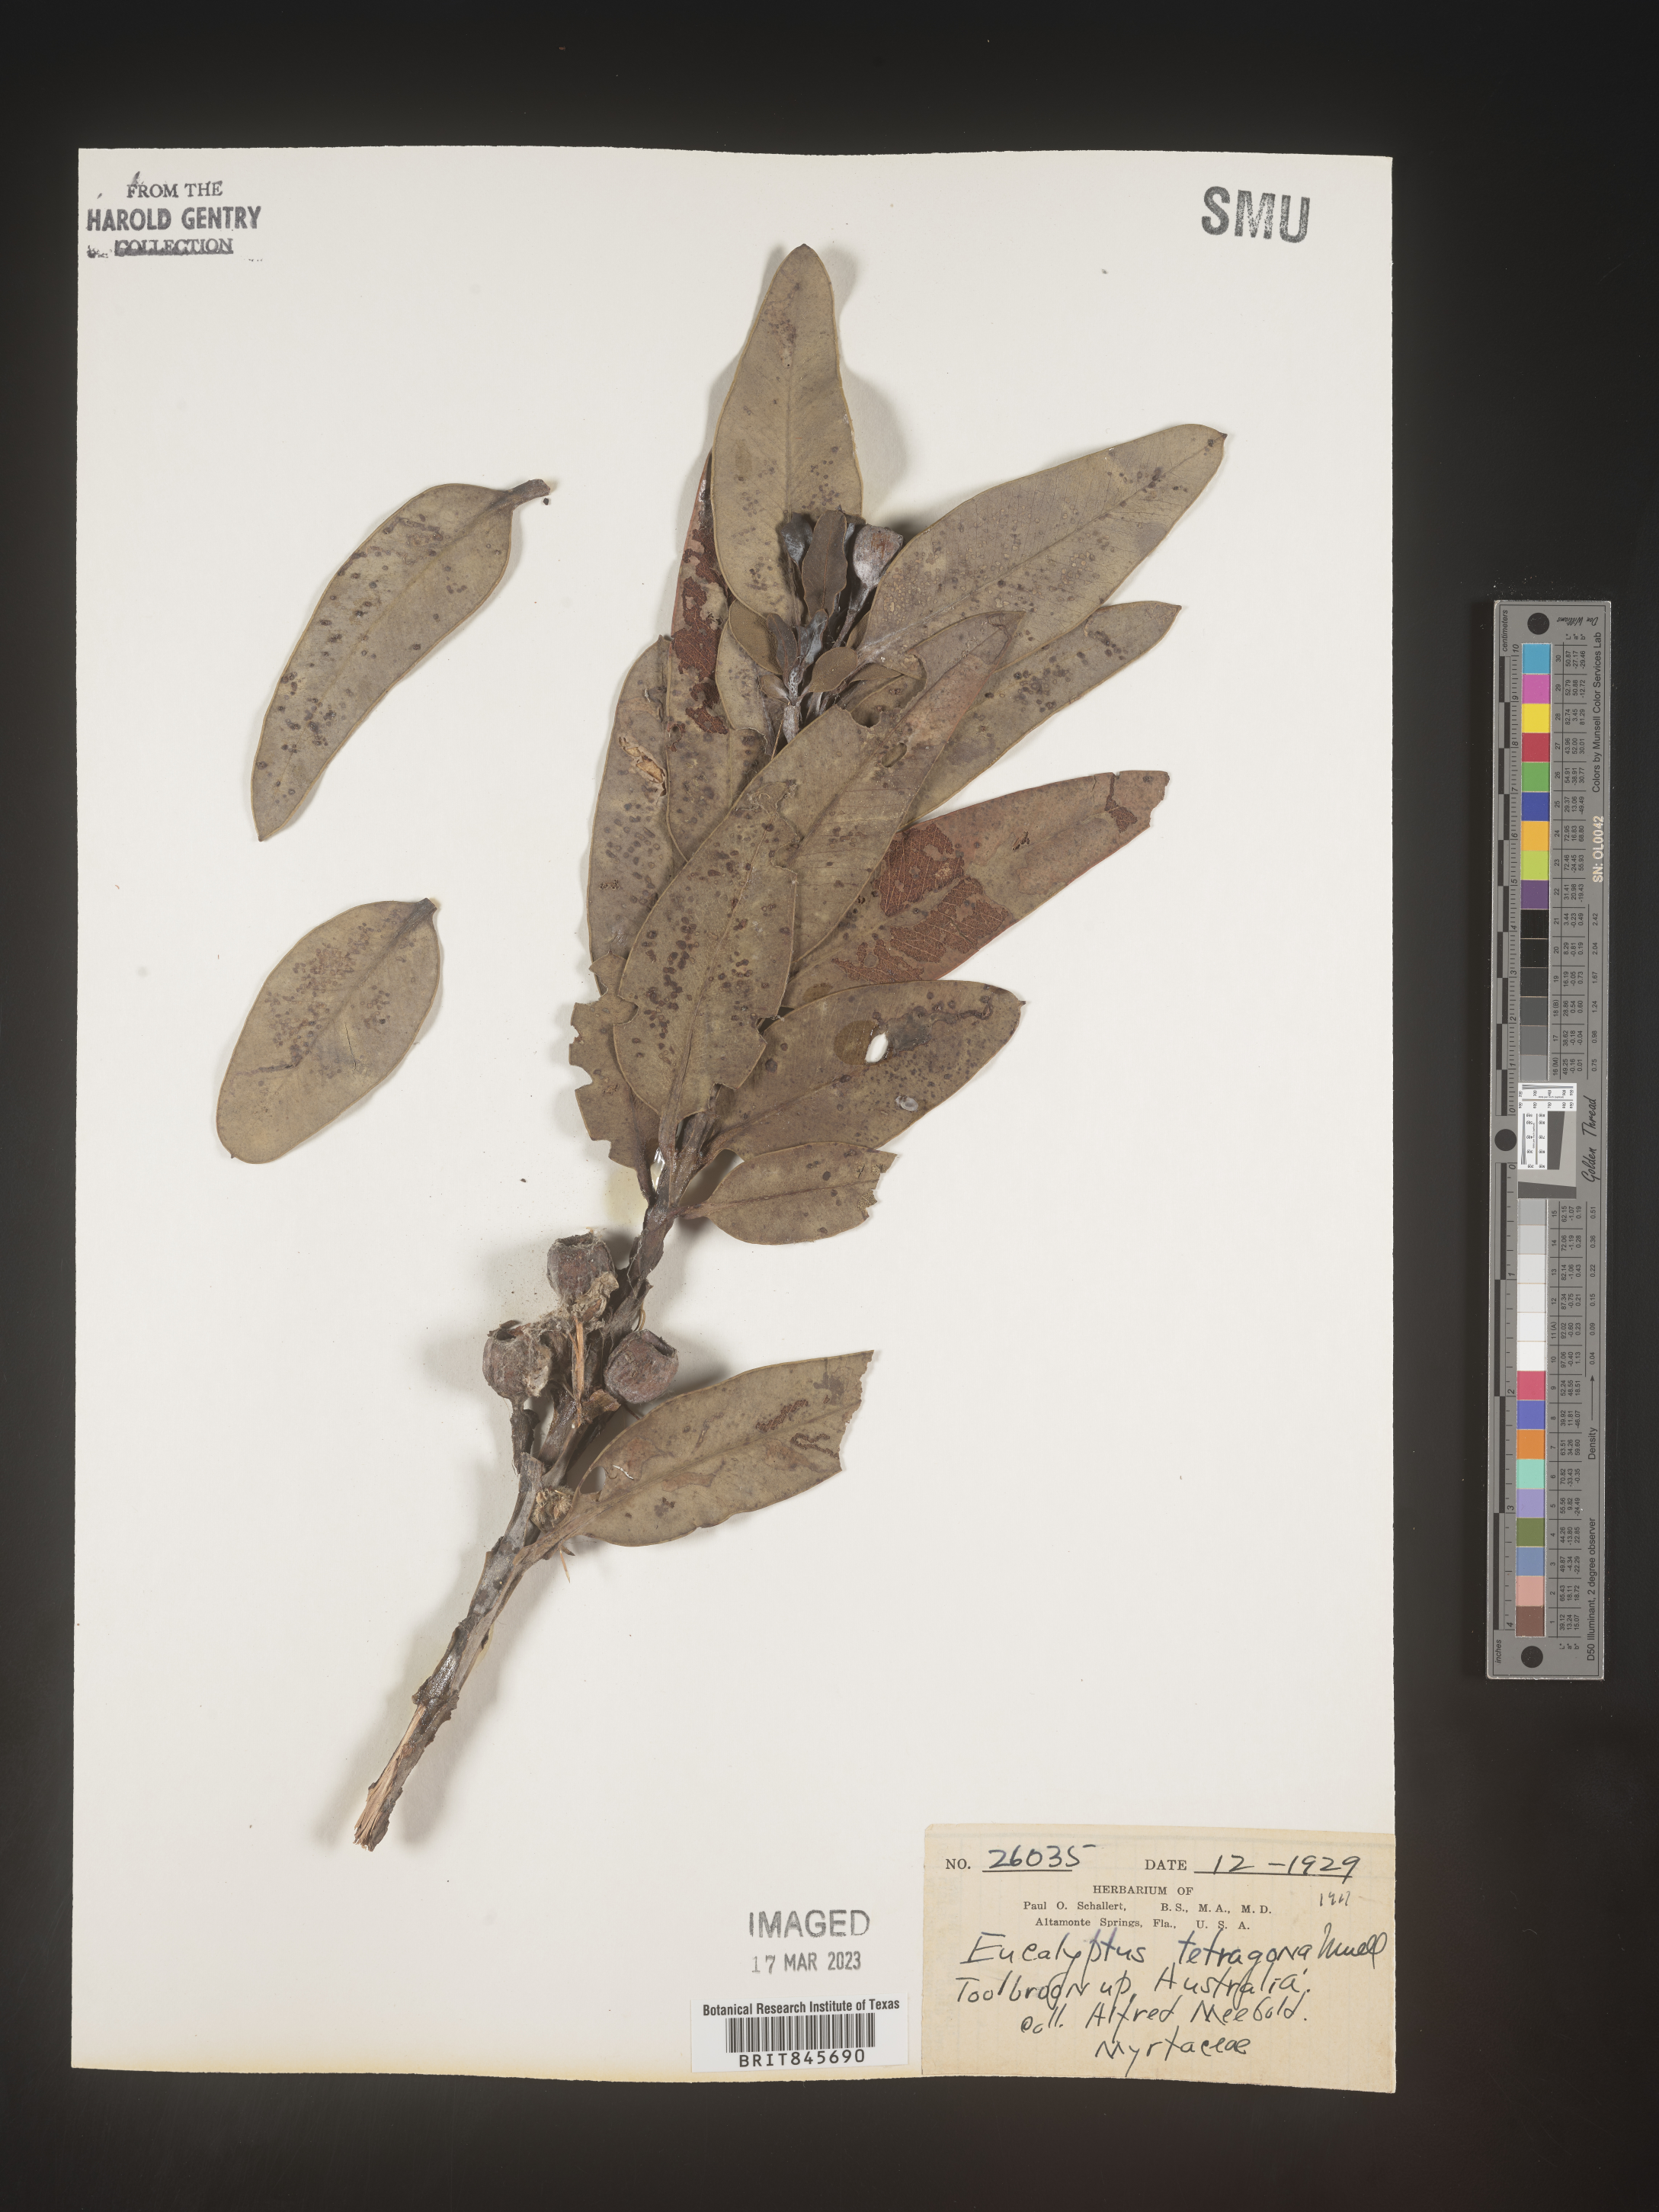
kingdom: Plantae
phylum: Tracheophyta
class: Magnoliopsida
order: Myrtales
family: Myrtaceae
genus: Eucalyptus
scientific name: Eucalyptus
